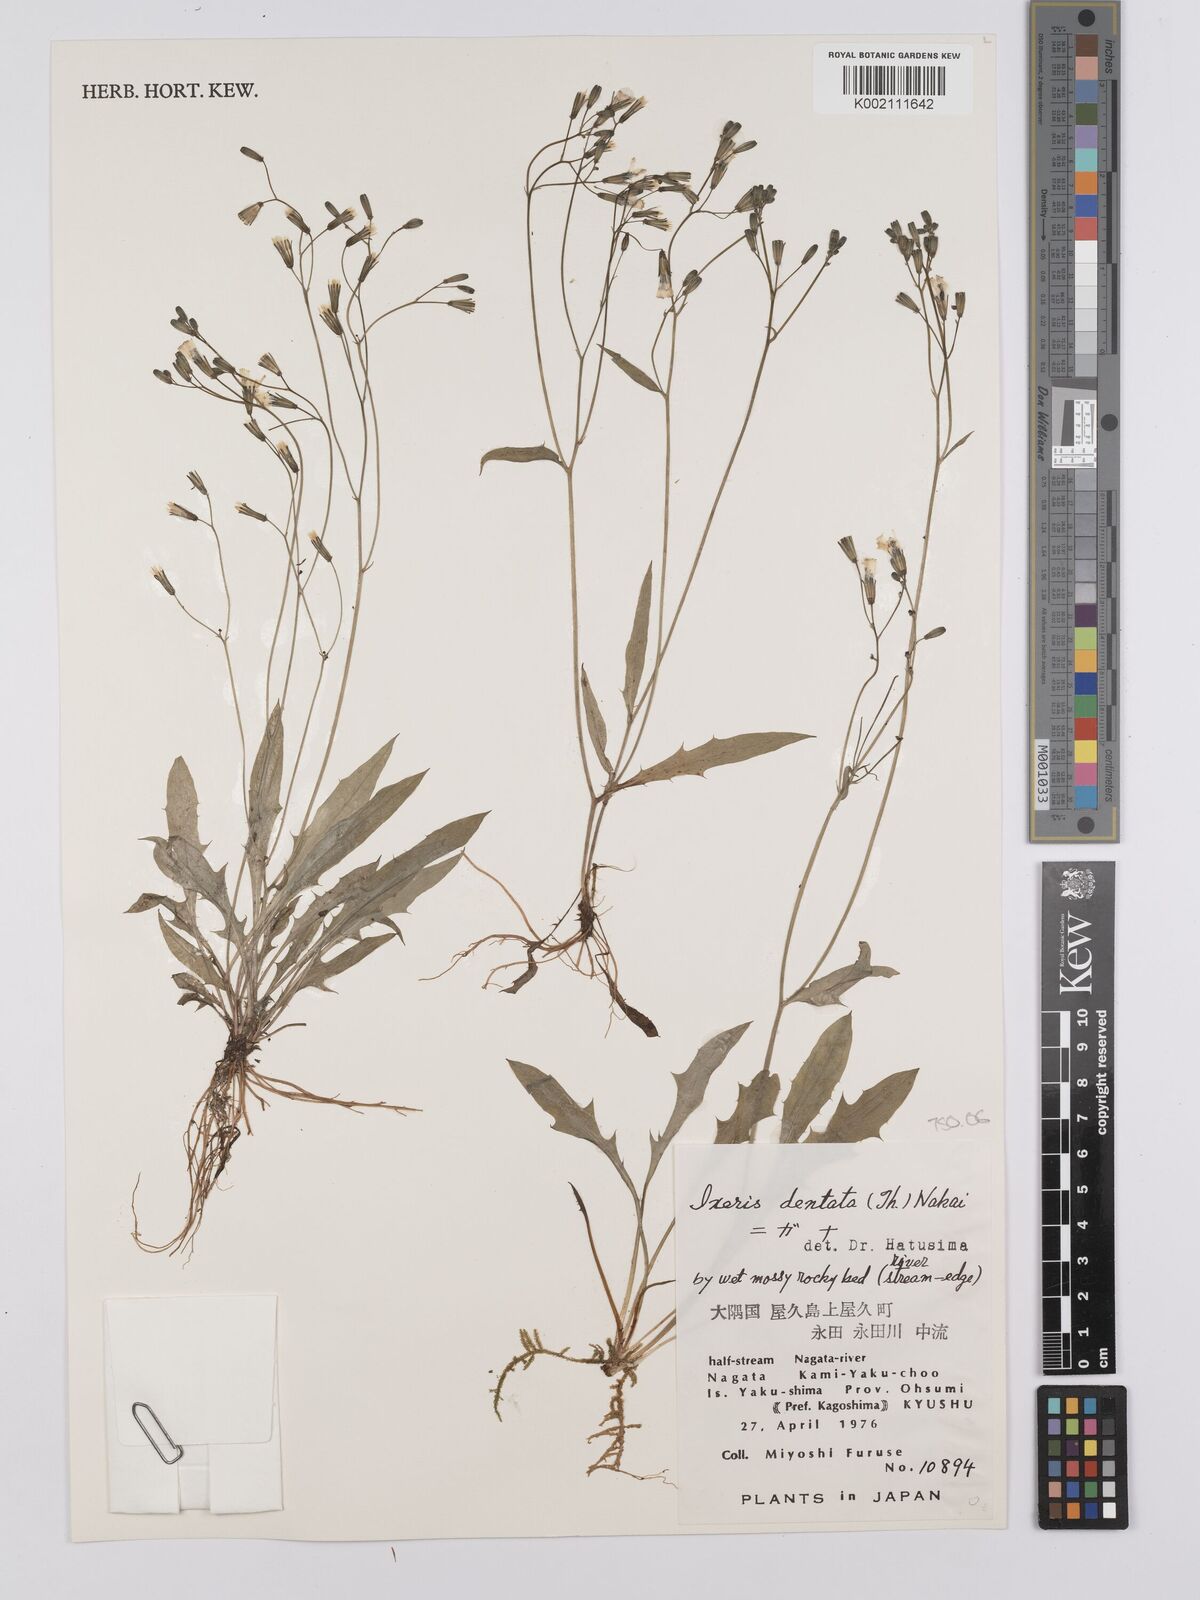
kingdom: Plantae
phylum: Tracheophyta
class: Magnoliopsida
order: Asterales
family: Asteraceae
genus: Ixeridium
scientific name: Ixeridium dentatum
